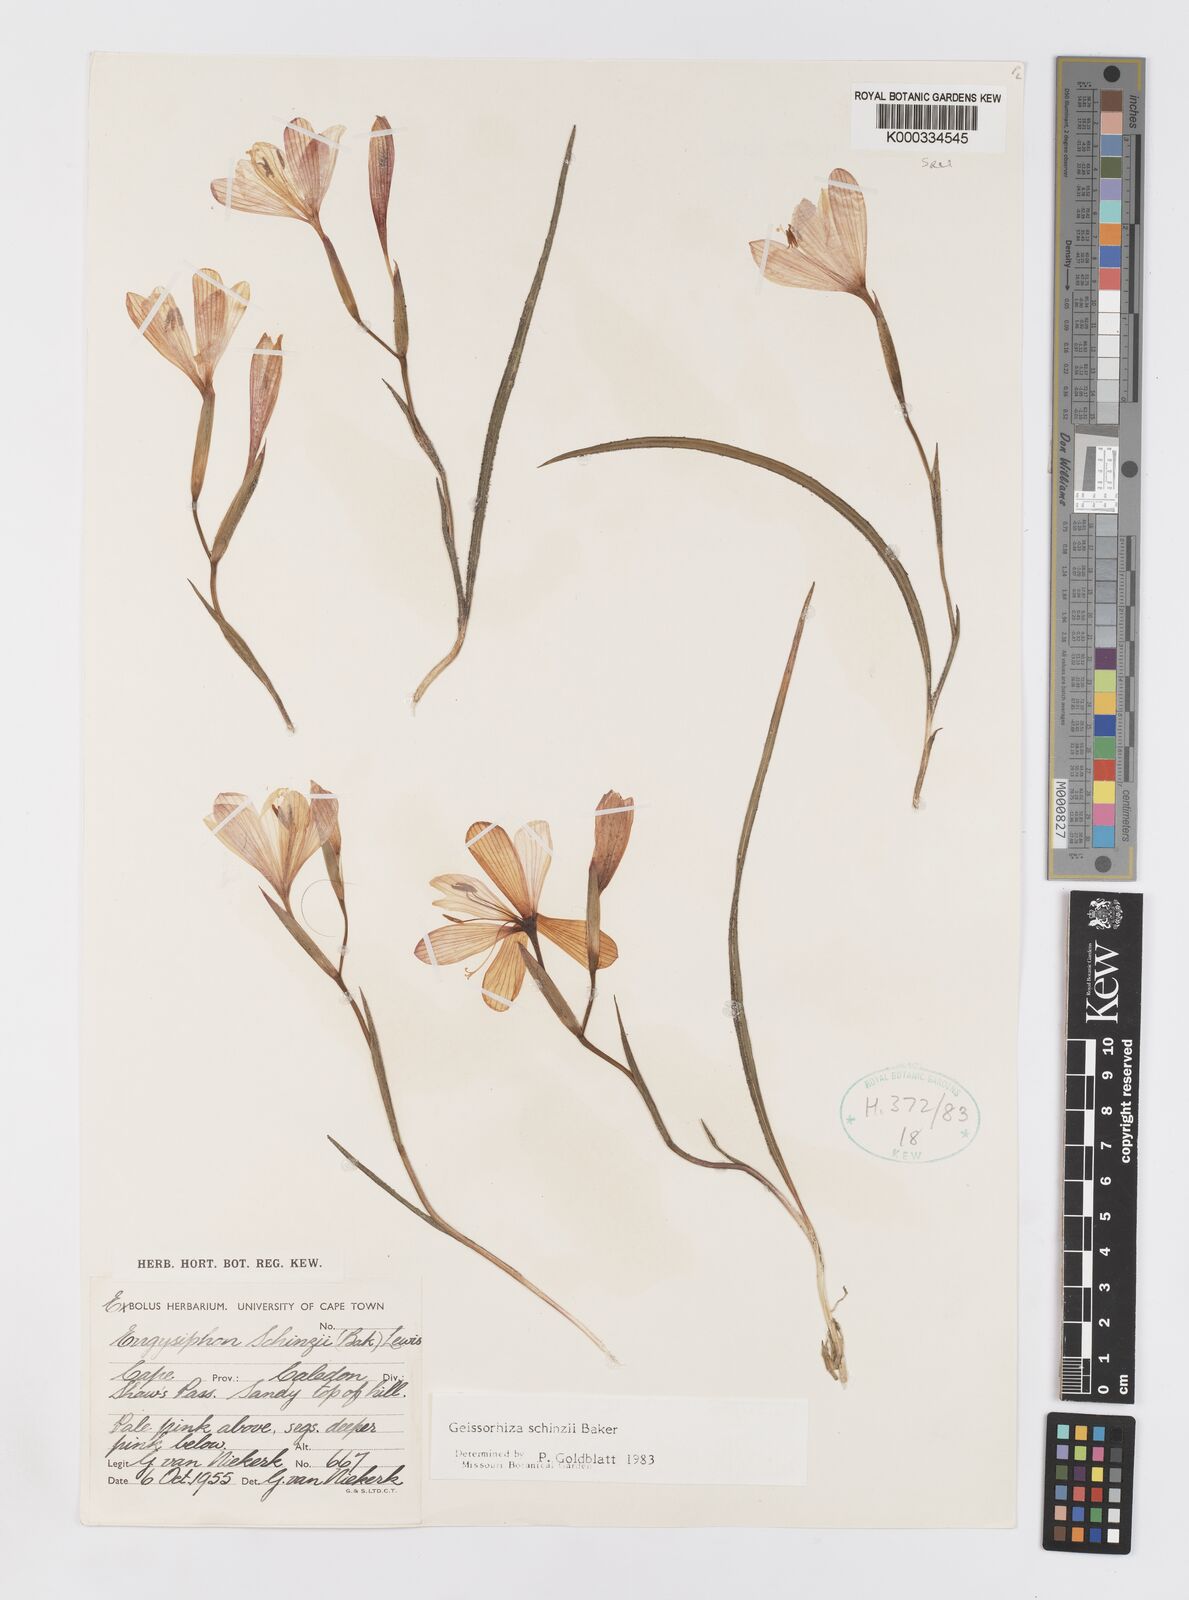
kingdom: Plantae
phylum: Tracheophyta
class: Liliopsida
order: Asparagales
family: Iridaceae
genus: Geissorhiza
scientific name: Geissorhiza schinzii
